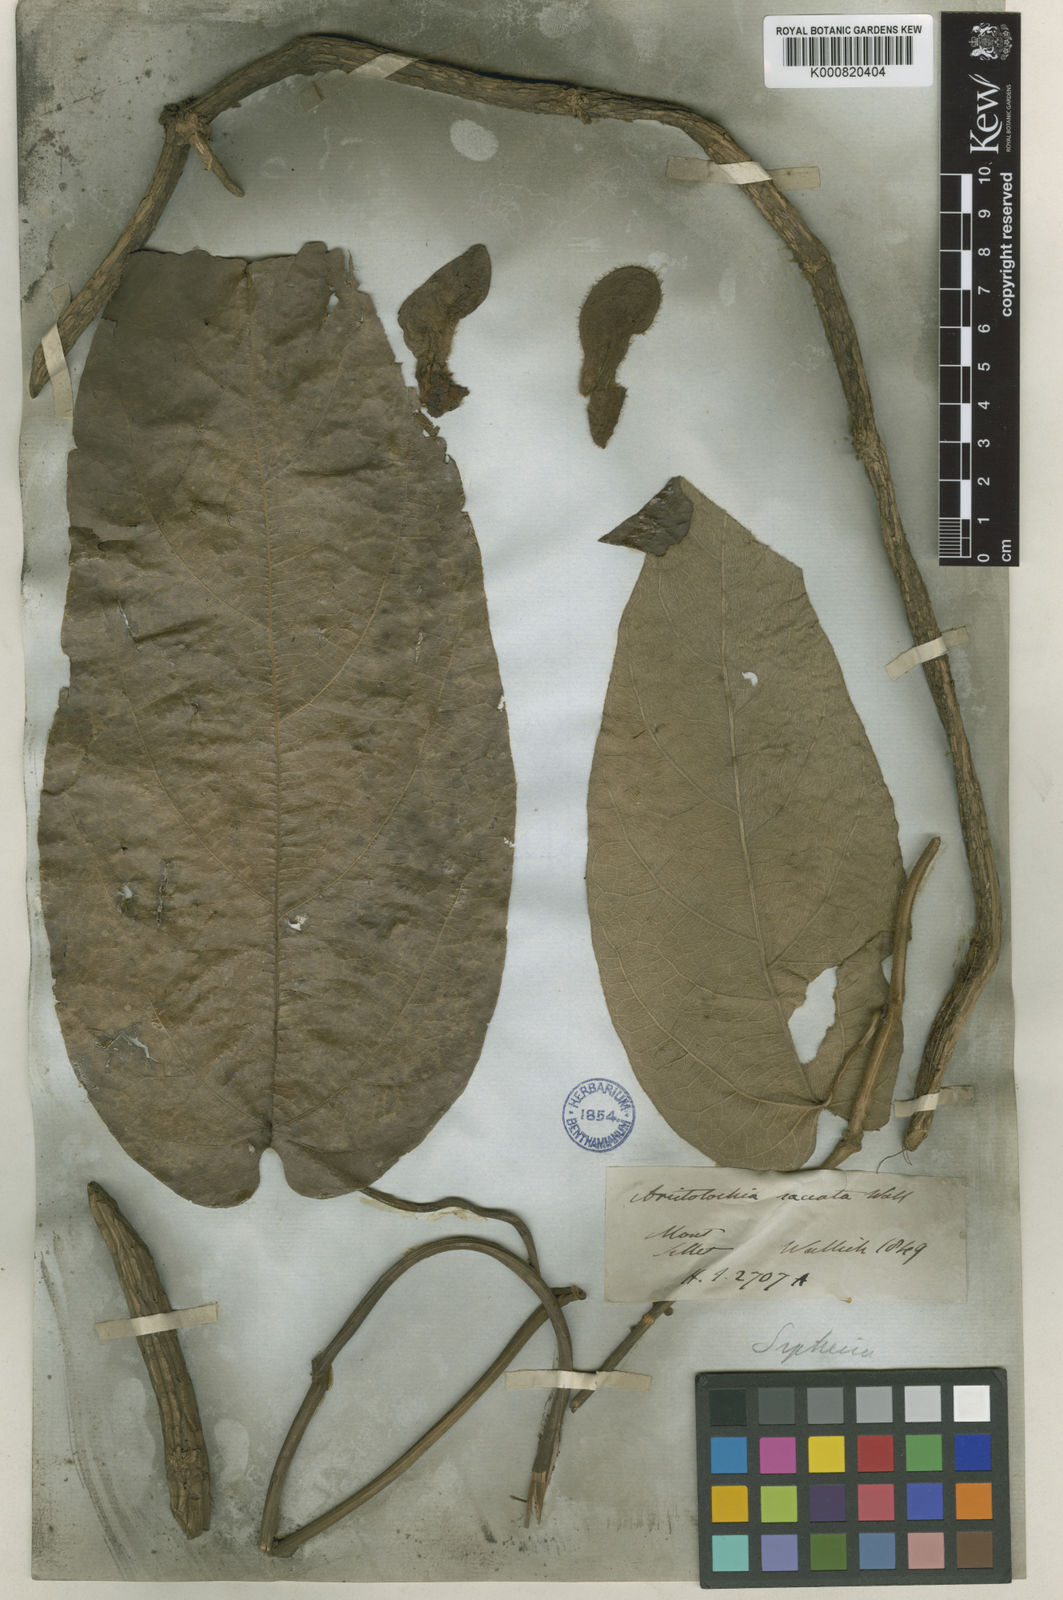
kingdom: Plantae
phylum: Tracheophyta
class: Magnoliopsida
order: Piperales
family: Aristolochiaceae
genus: Isotrema
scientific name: Isotrema
